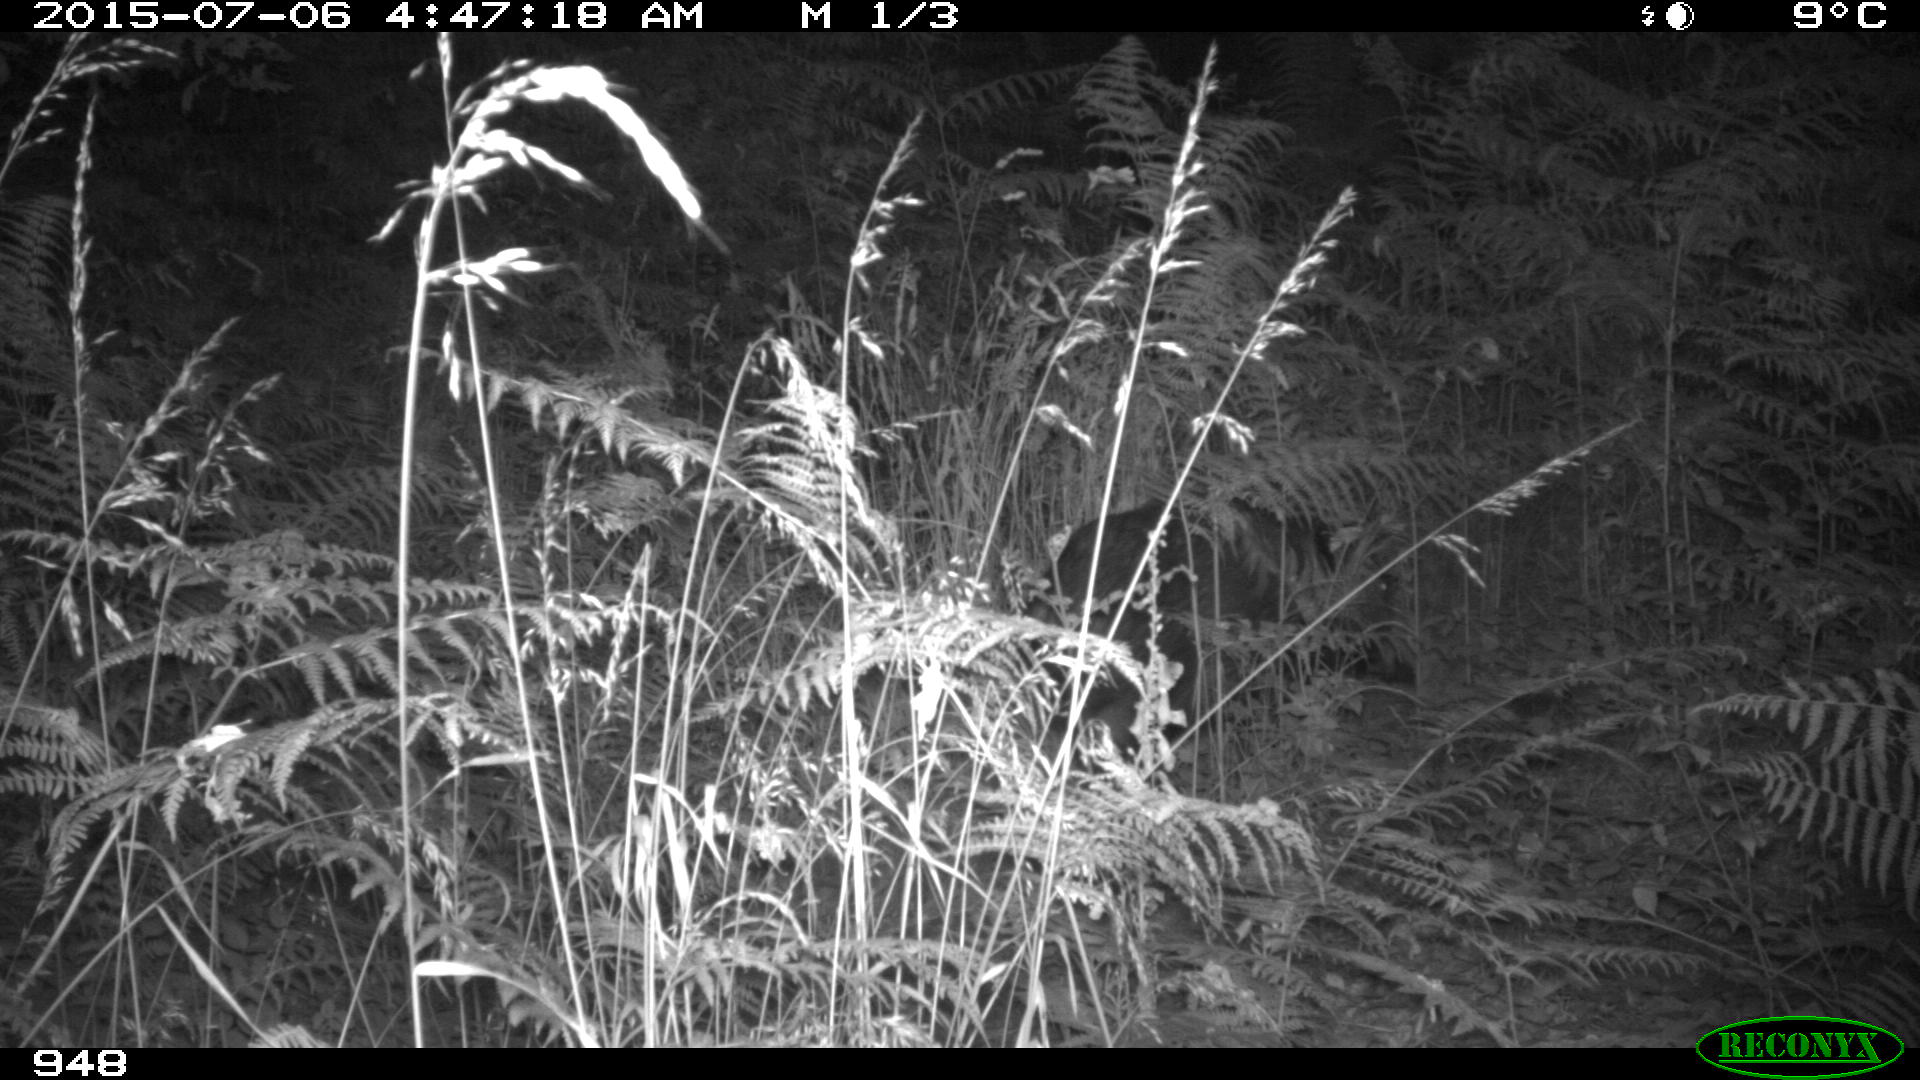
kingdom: Animalia
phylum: Chordata
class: Mammalia
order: Artiodactyla
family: Suidae
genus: Sus
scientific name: Sus scrofa
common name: Wild boar
